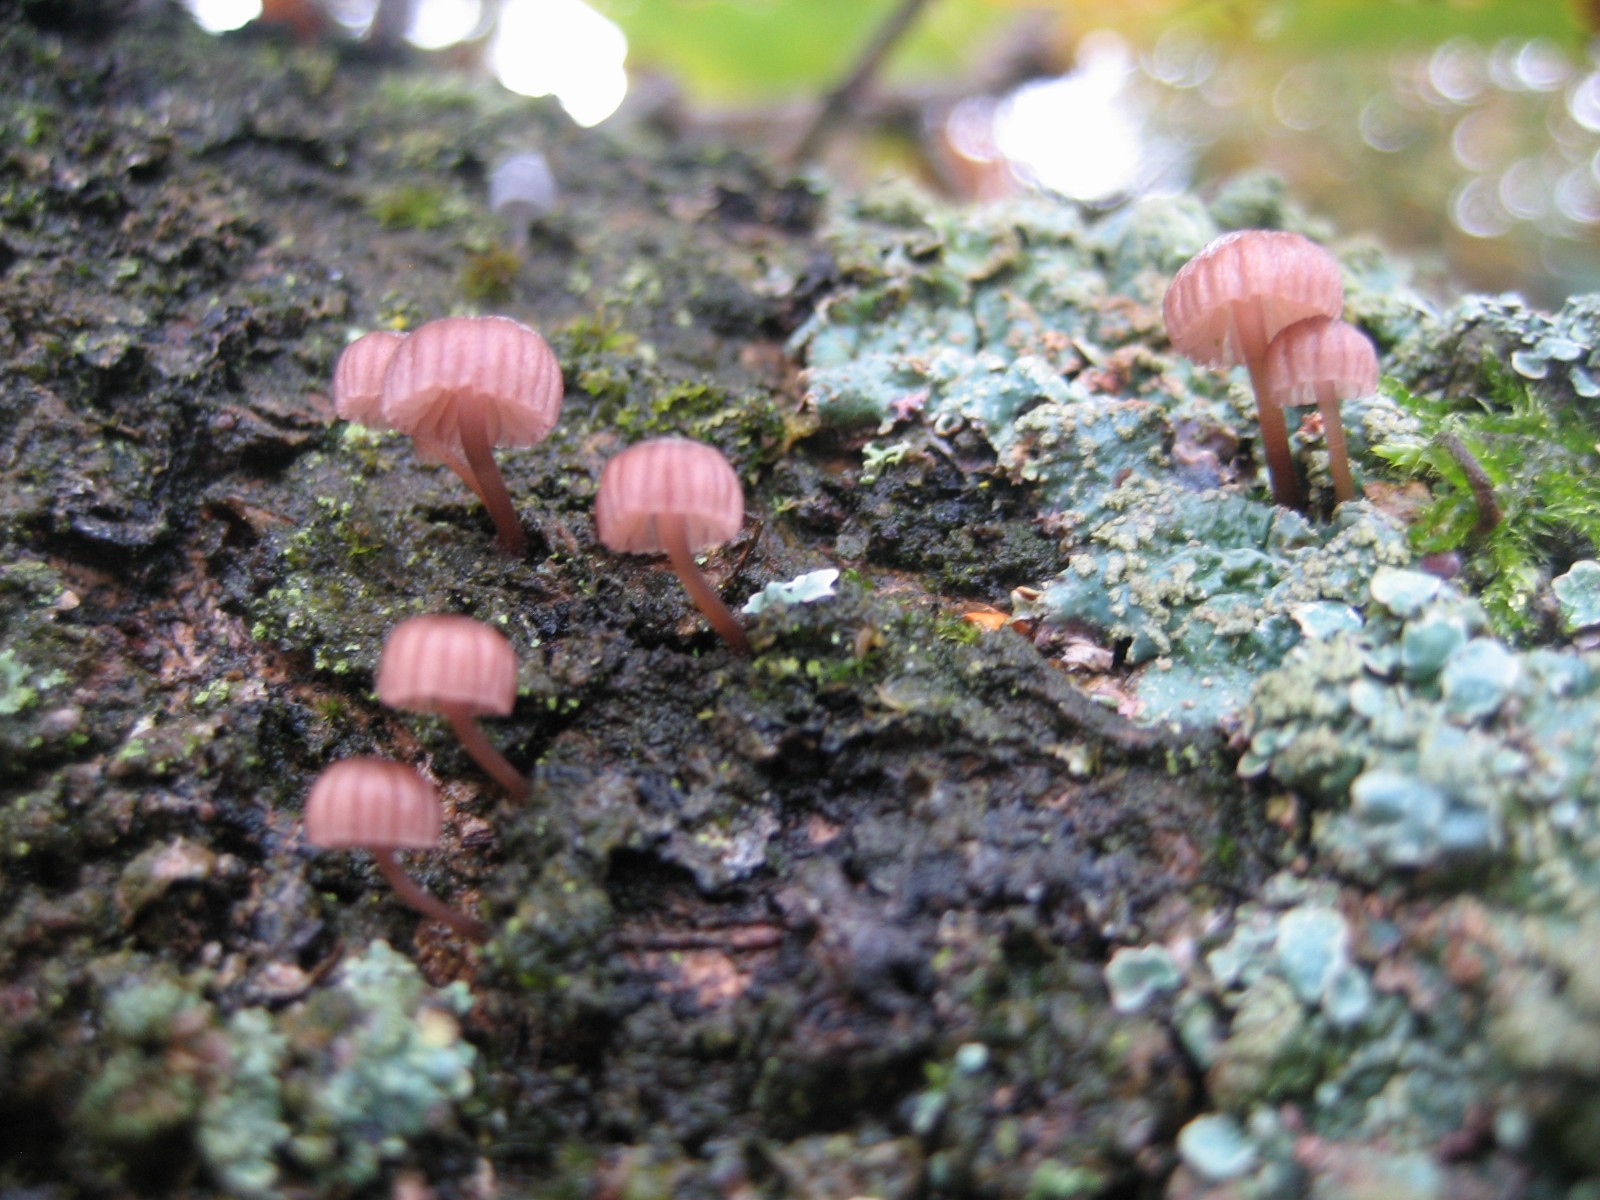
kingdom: Fungi
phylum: Basidiomycota
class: Agaricomycetes
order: Agaricales
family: Mycenaceae
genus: Mycena
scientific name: Mycena meliigena
